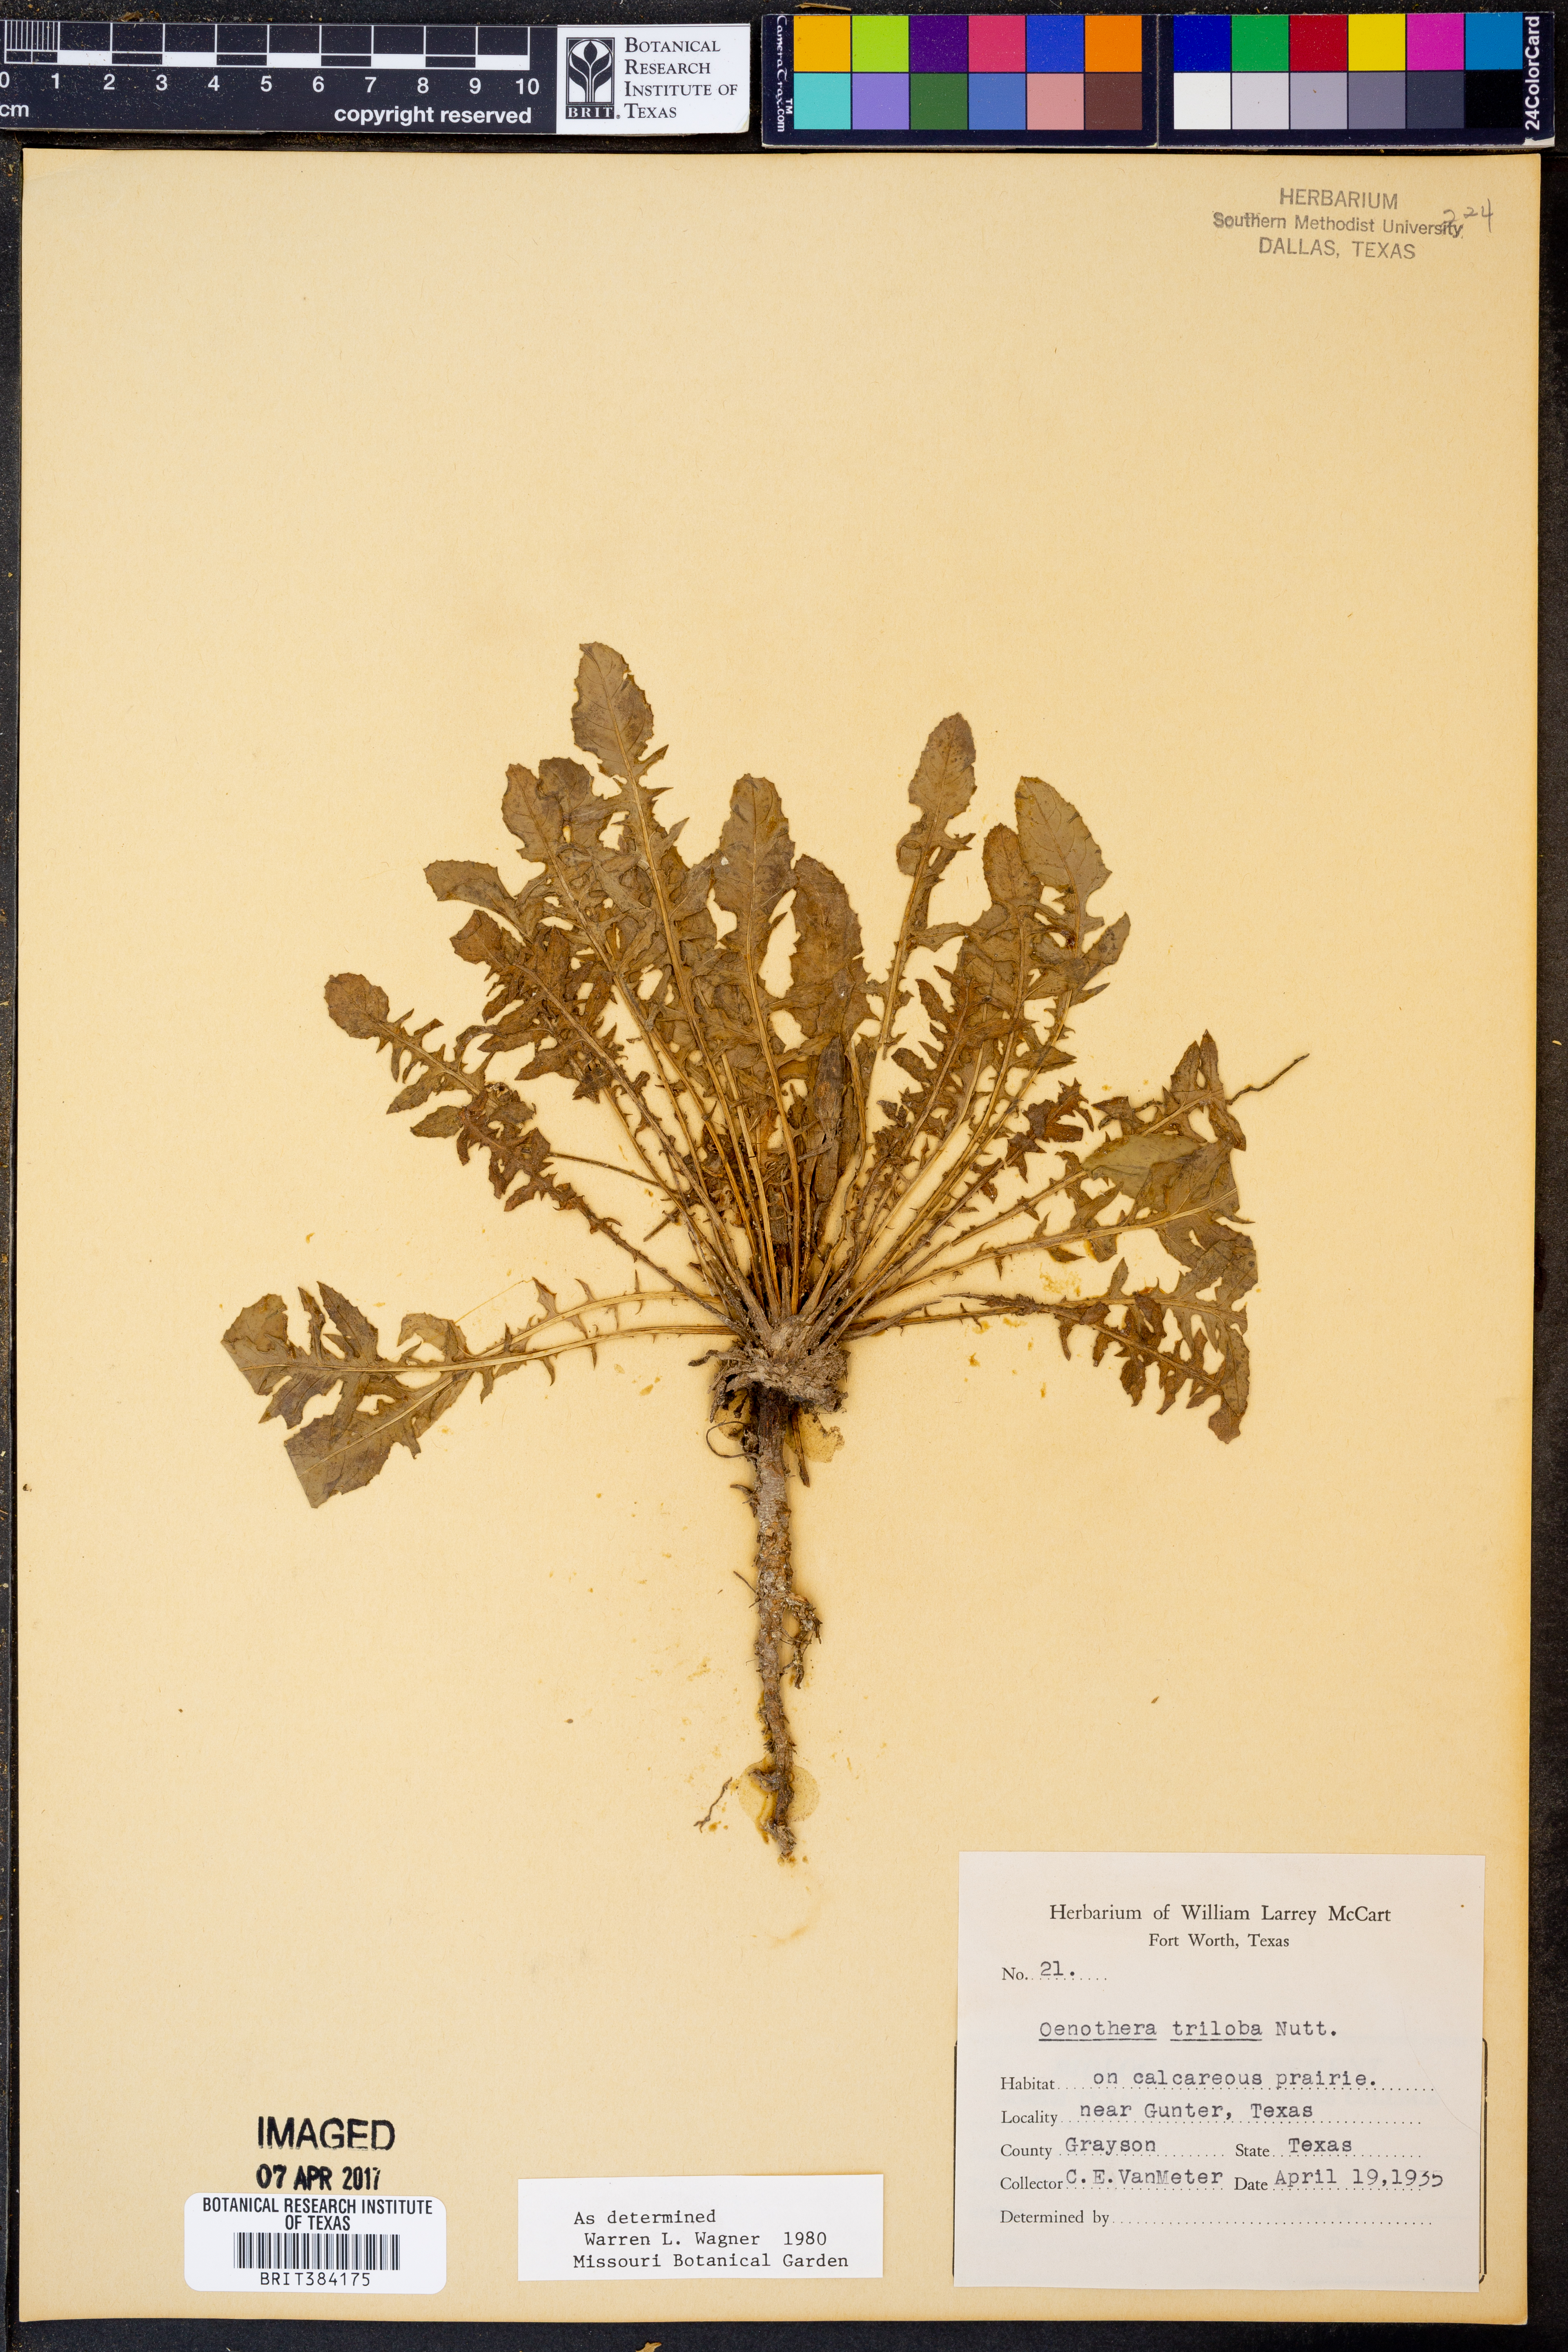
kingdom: Plantae
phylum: Tracheophyta
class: Magnoliopsida
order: Myrtales
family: Onagraceae
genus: Oenothera
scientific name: Oenothera triloba
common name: Sessile evening-primrose
